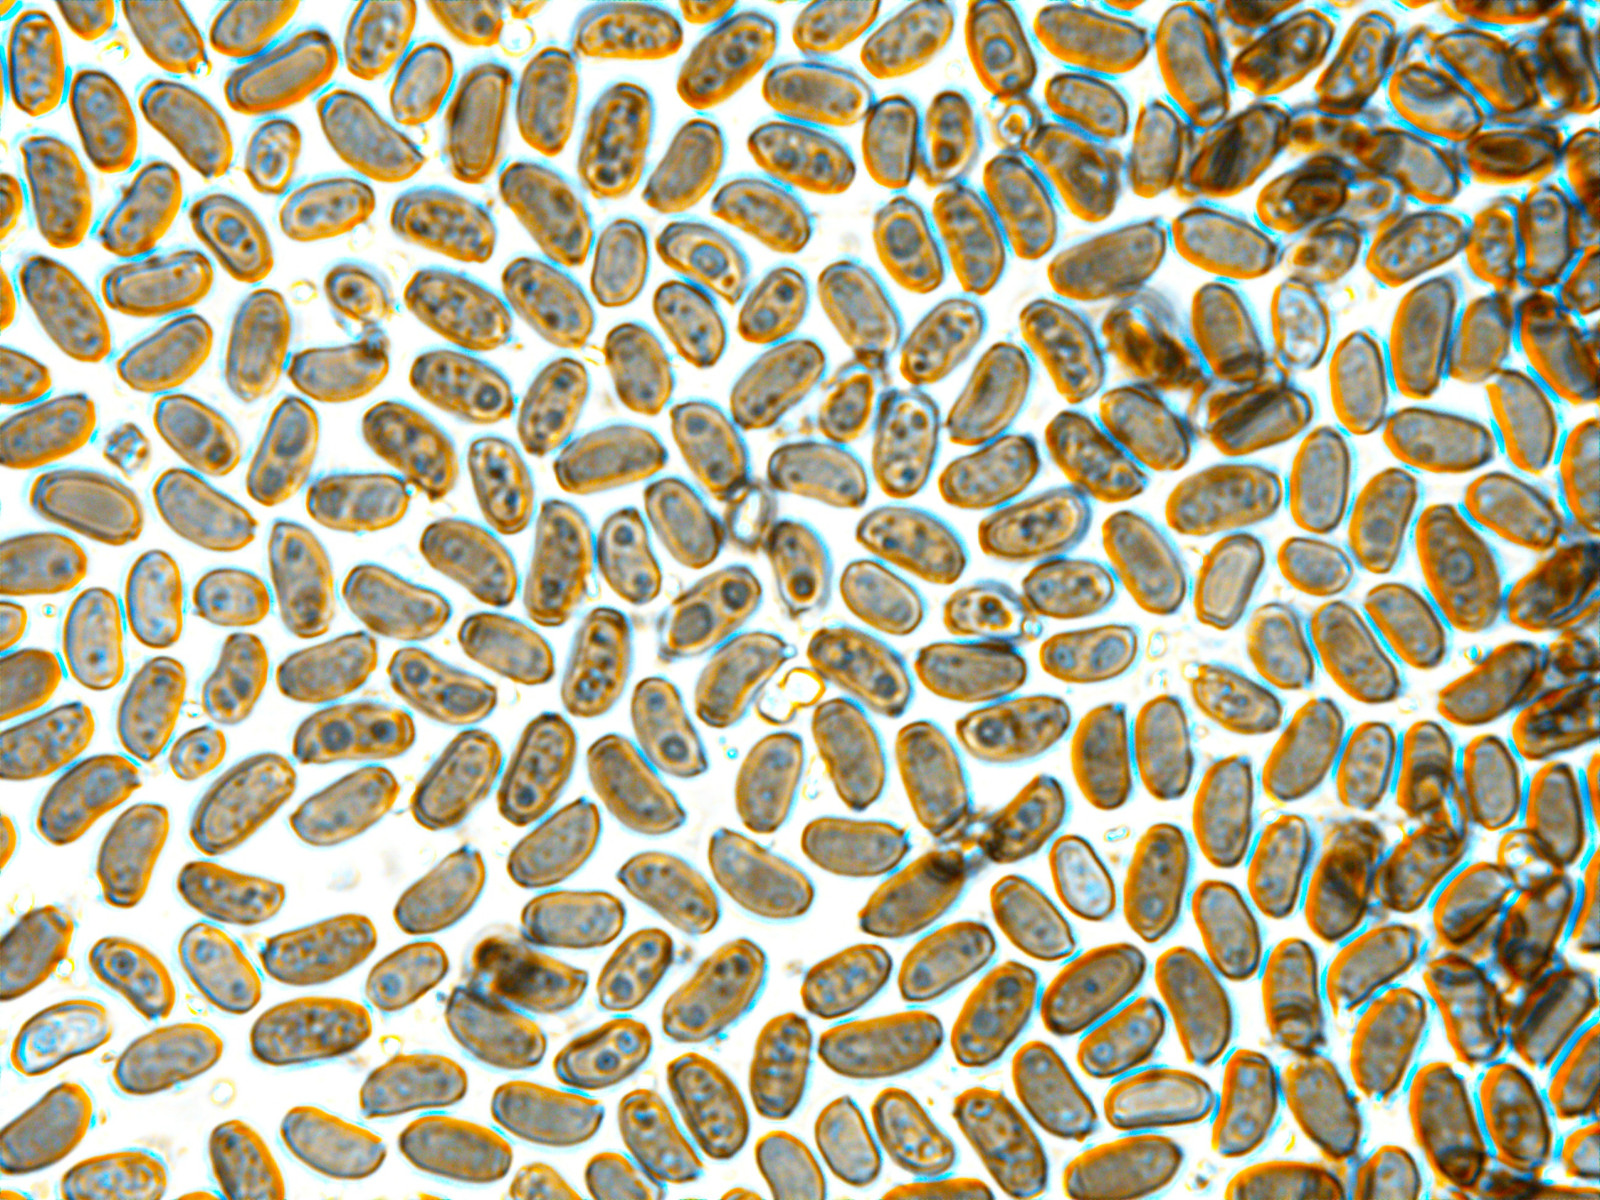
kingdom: Fungi
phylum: Basidiomycota
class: Agaricomycetes
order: Agaricales
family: Psathyrellaceae
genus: Coprinellus
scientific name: Coprinellus domesticus
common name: hus-blækhat
